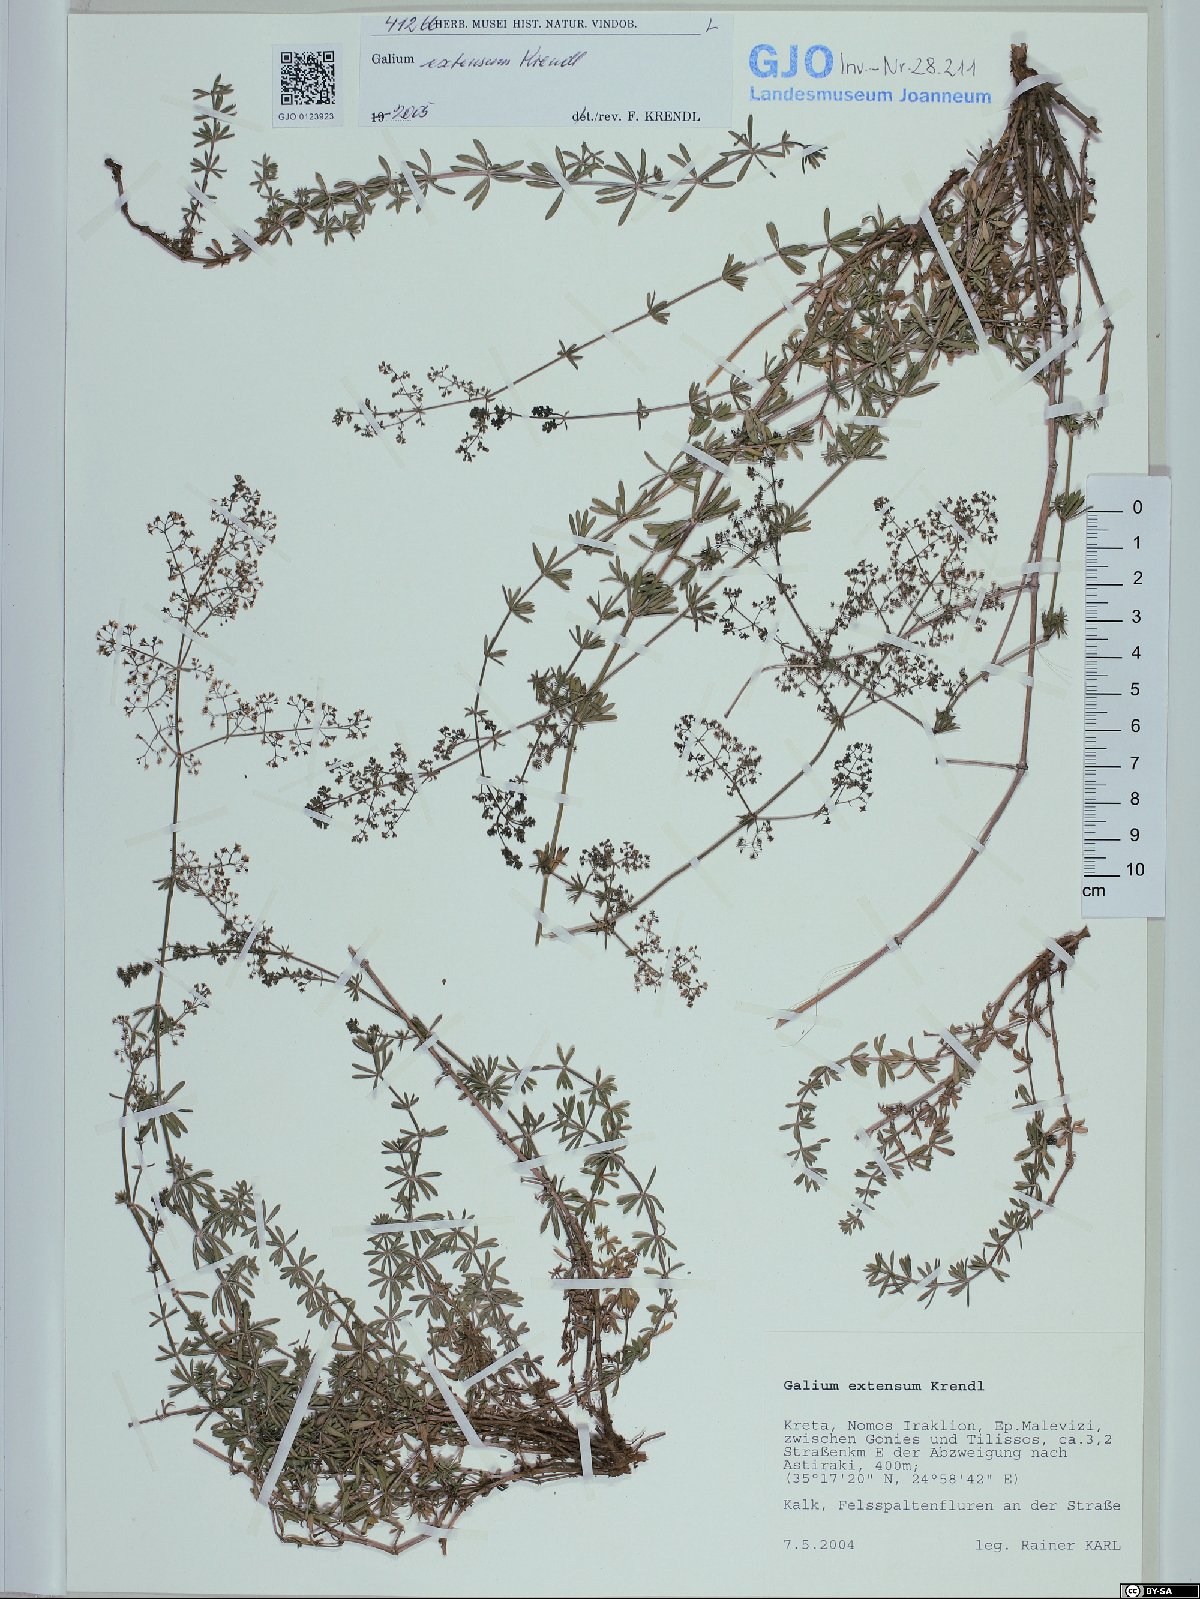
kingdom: Plantae
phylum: Tracheophyta
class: Magnoliopsida
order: Gentianales
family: Rubiaceae
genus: Galium
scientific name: Galium extensum
